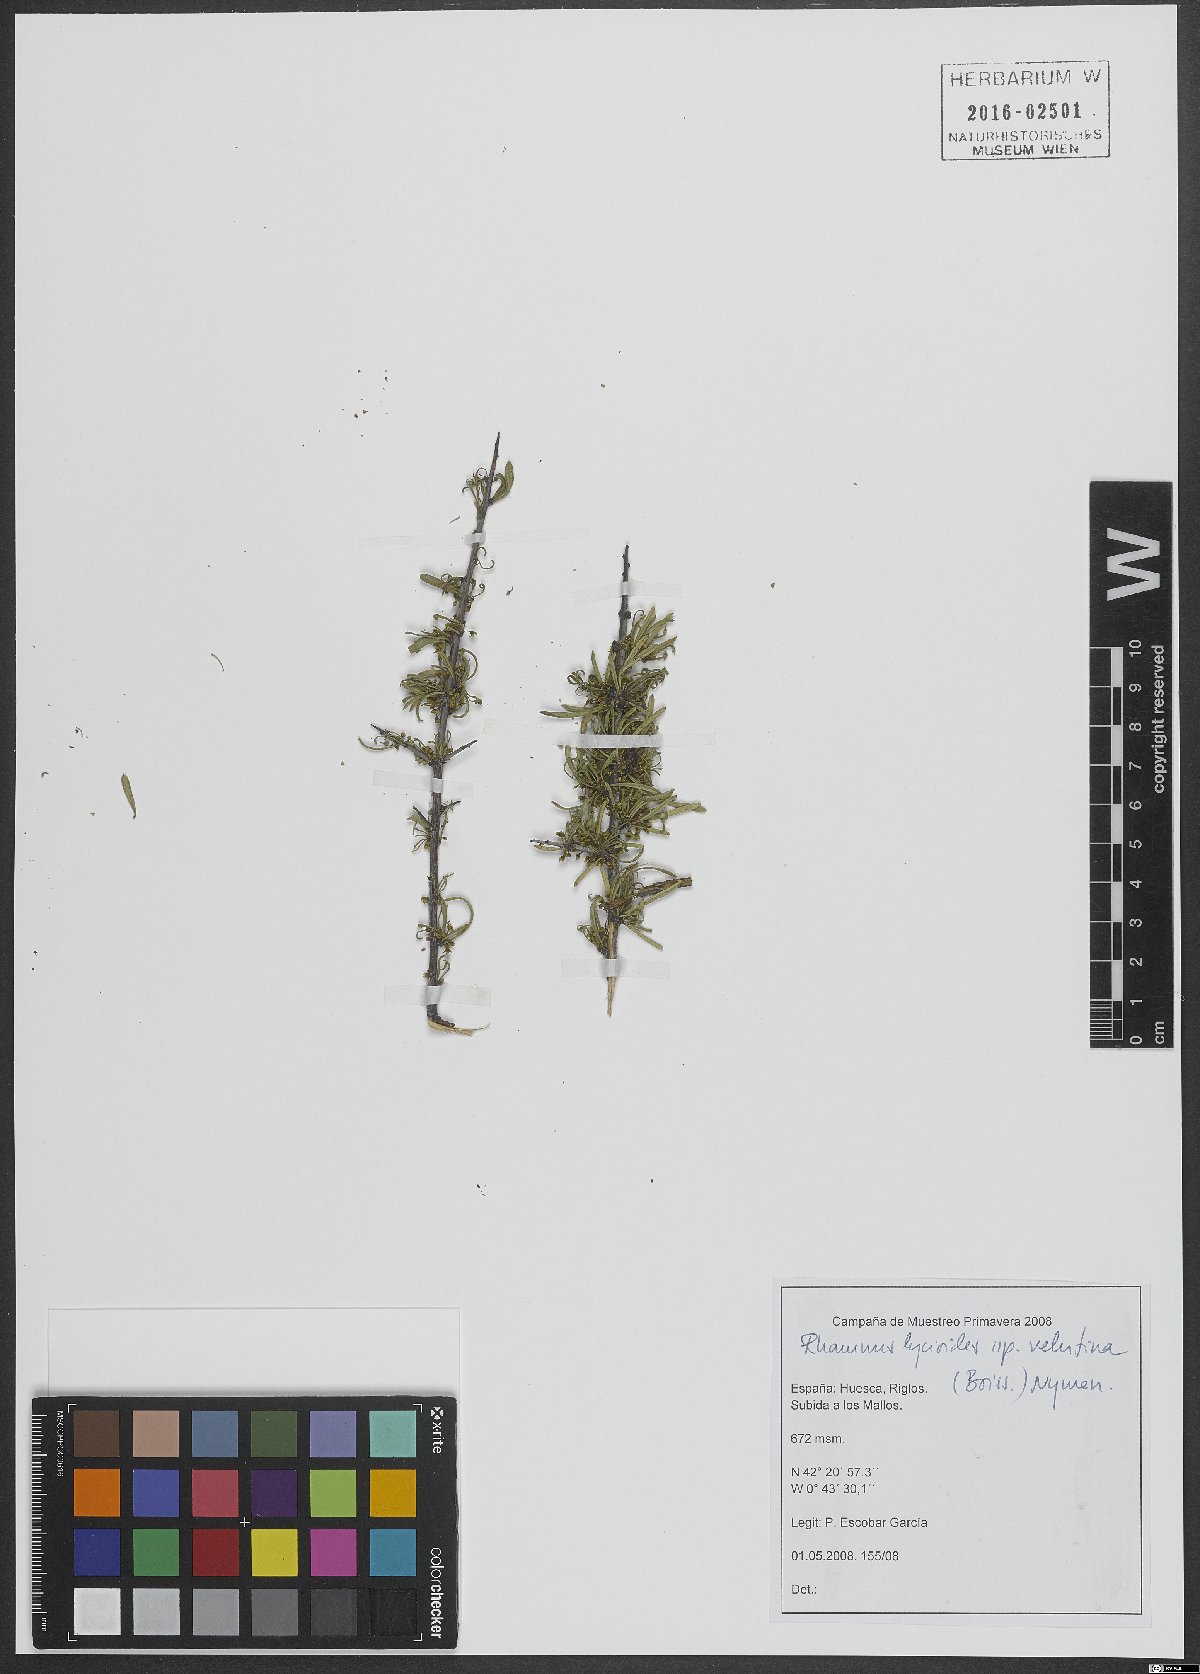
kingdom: Plantae
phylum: Tracheophyta
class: Magnoliopsida
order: Rosales
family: Rhamnaceae
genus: Rhamnus
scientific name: Rhamnus velutina
